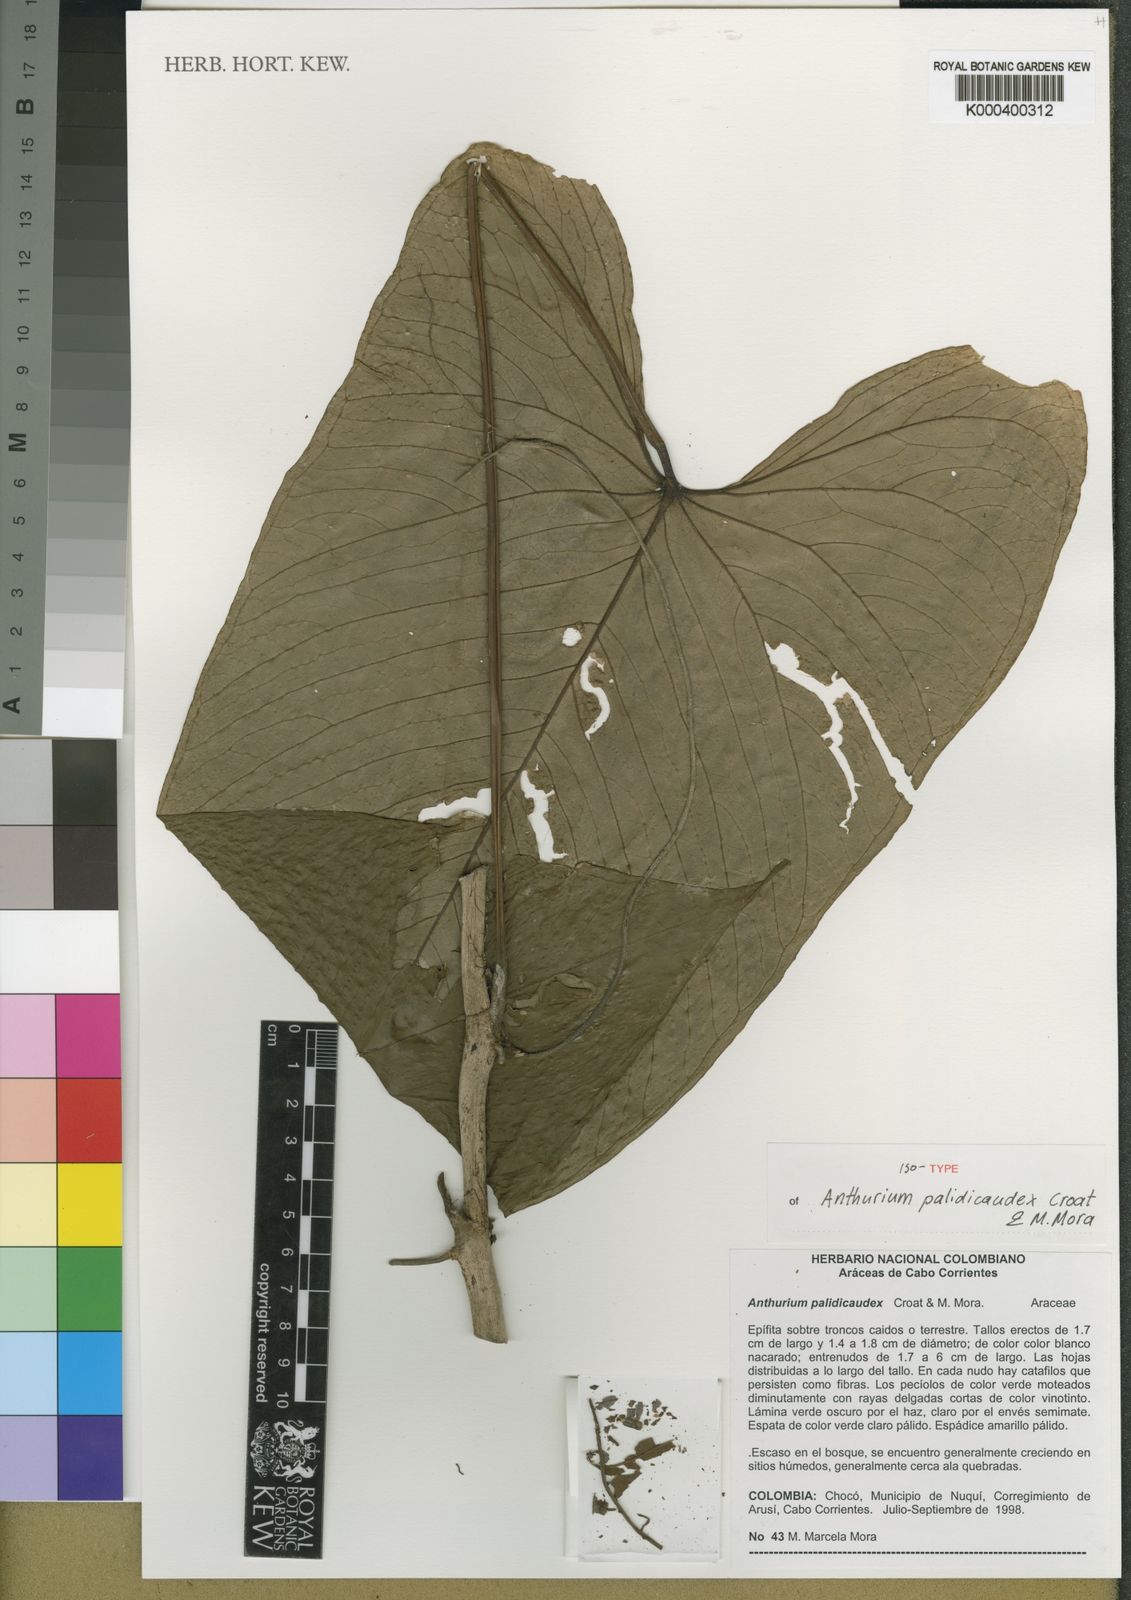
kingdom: Plantae
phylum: Tracheophyta
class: Liliopsida
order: Alismatales
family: Araceae
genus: Anthurium
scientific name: Anthurium pallidicaudex
